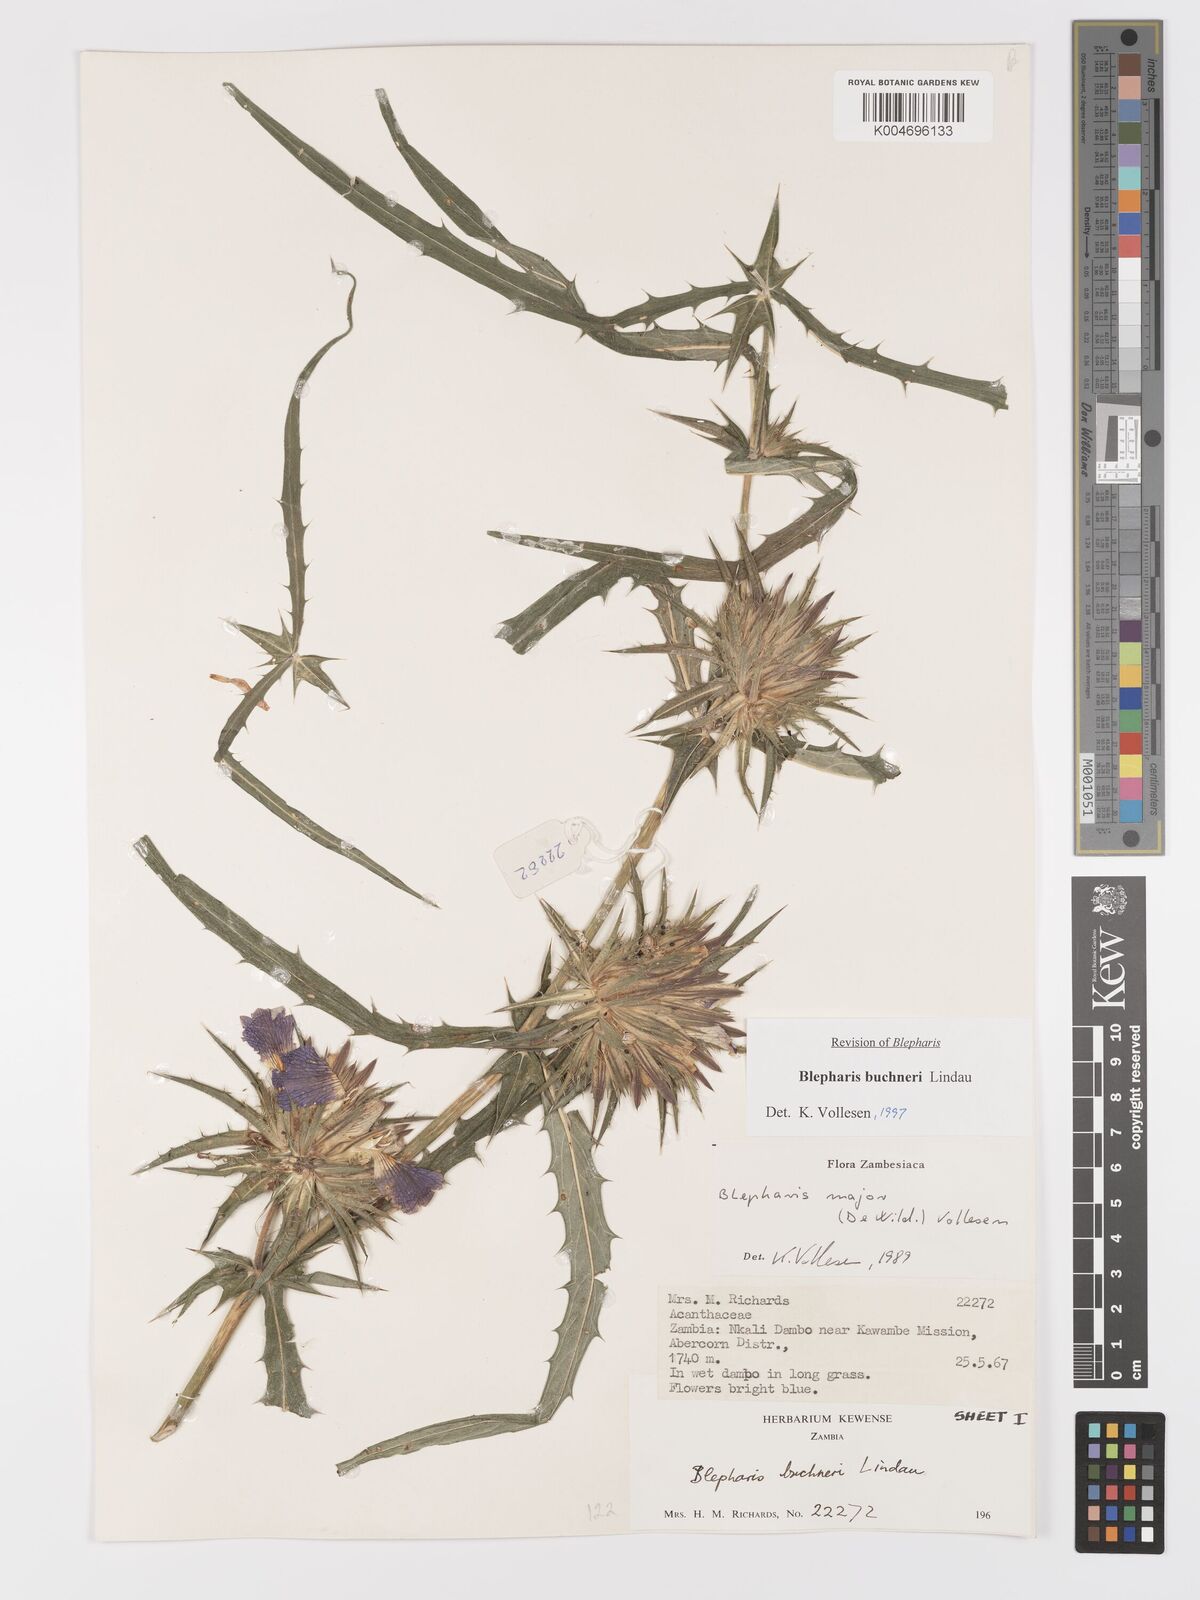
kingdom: Plantae
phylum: Tracheophyta
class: Magnoliopsida
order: Lamiales
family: Acanthaceae
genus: Blepharis
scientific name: Blepharis buchneri
